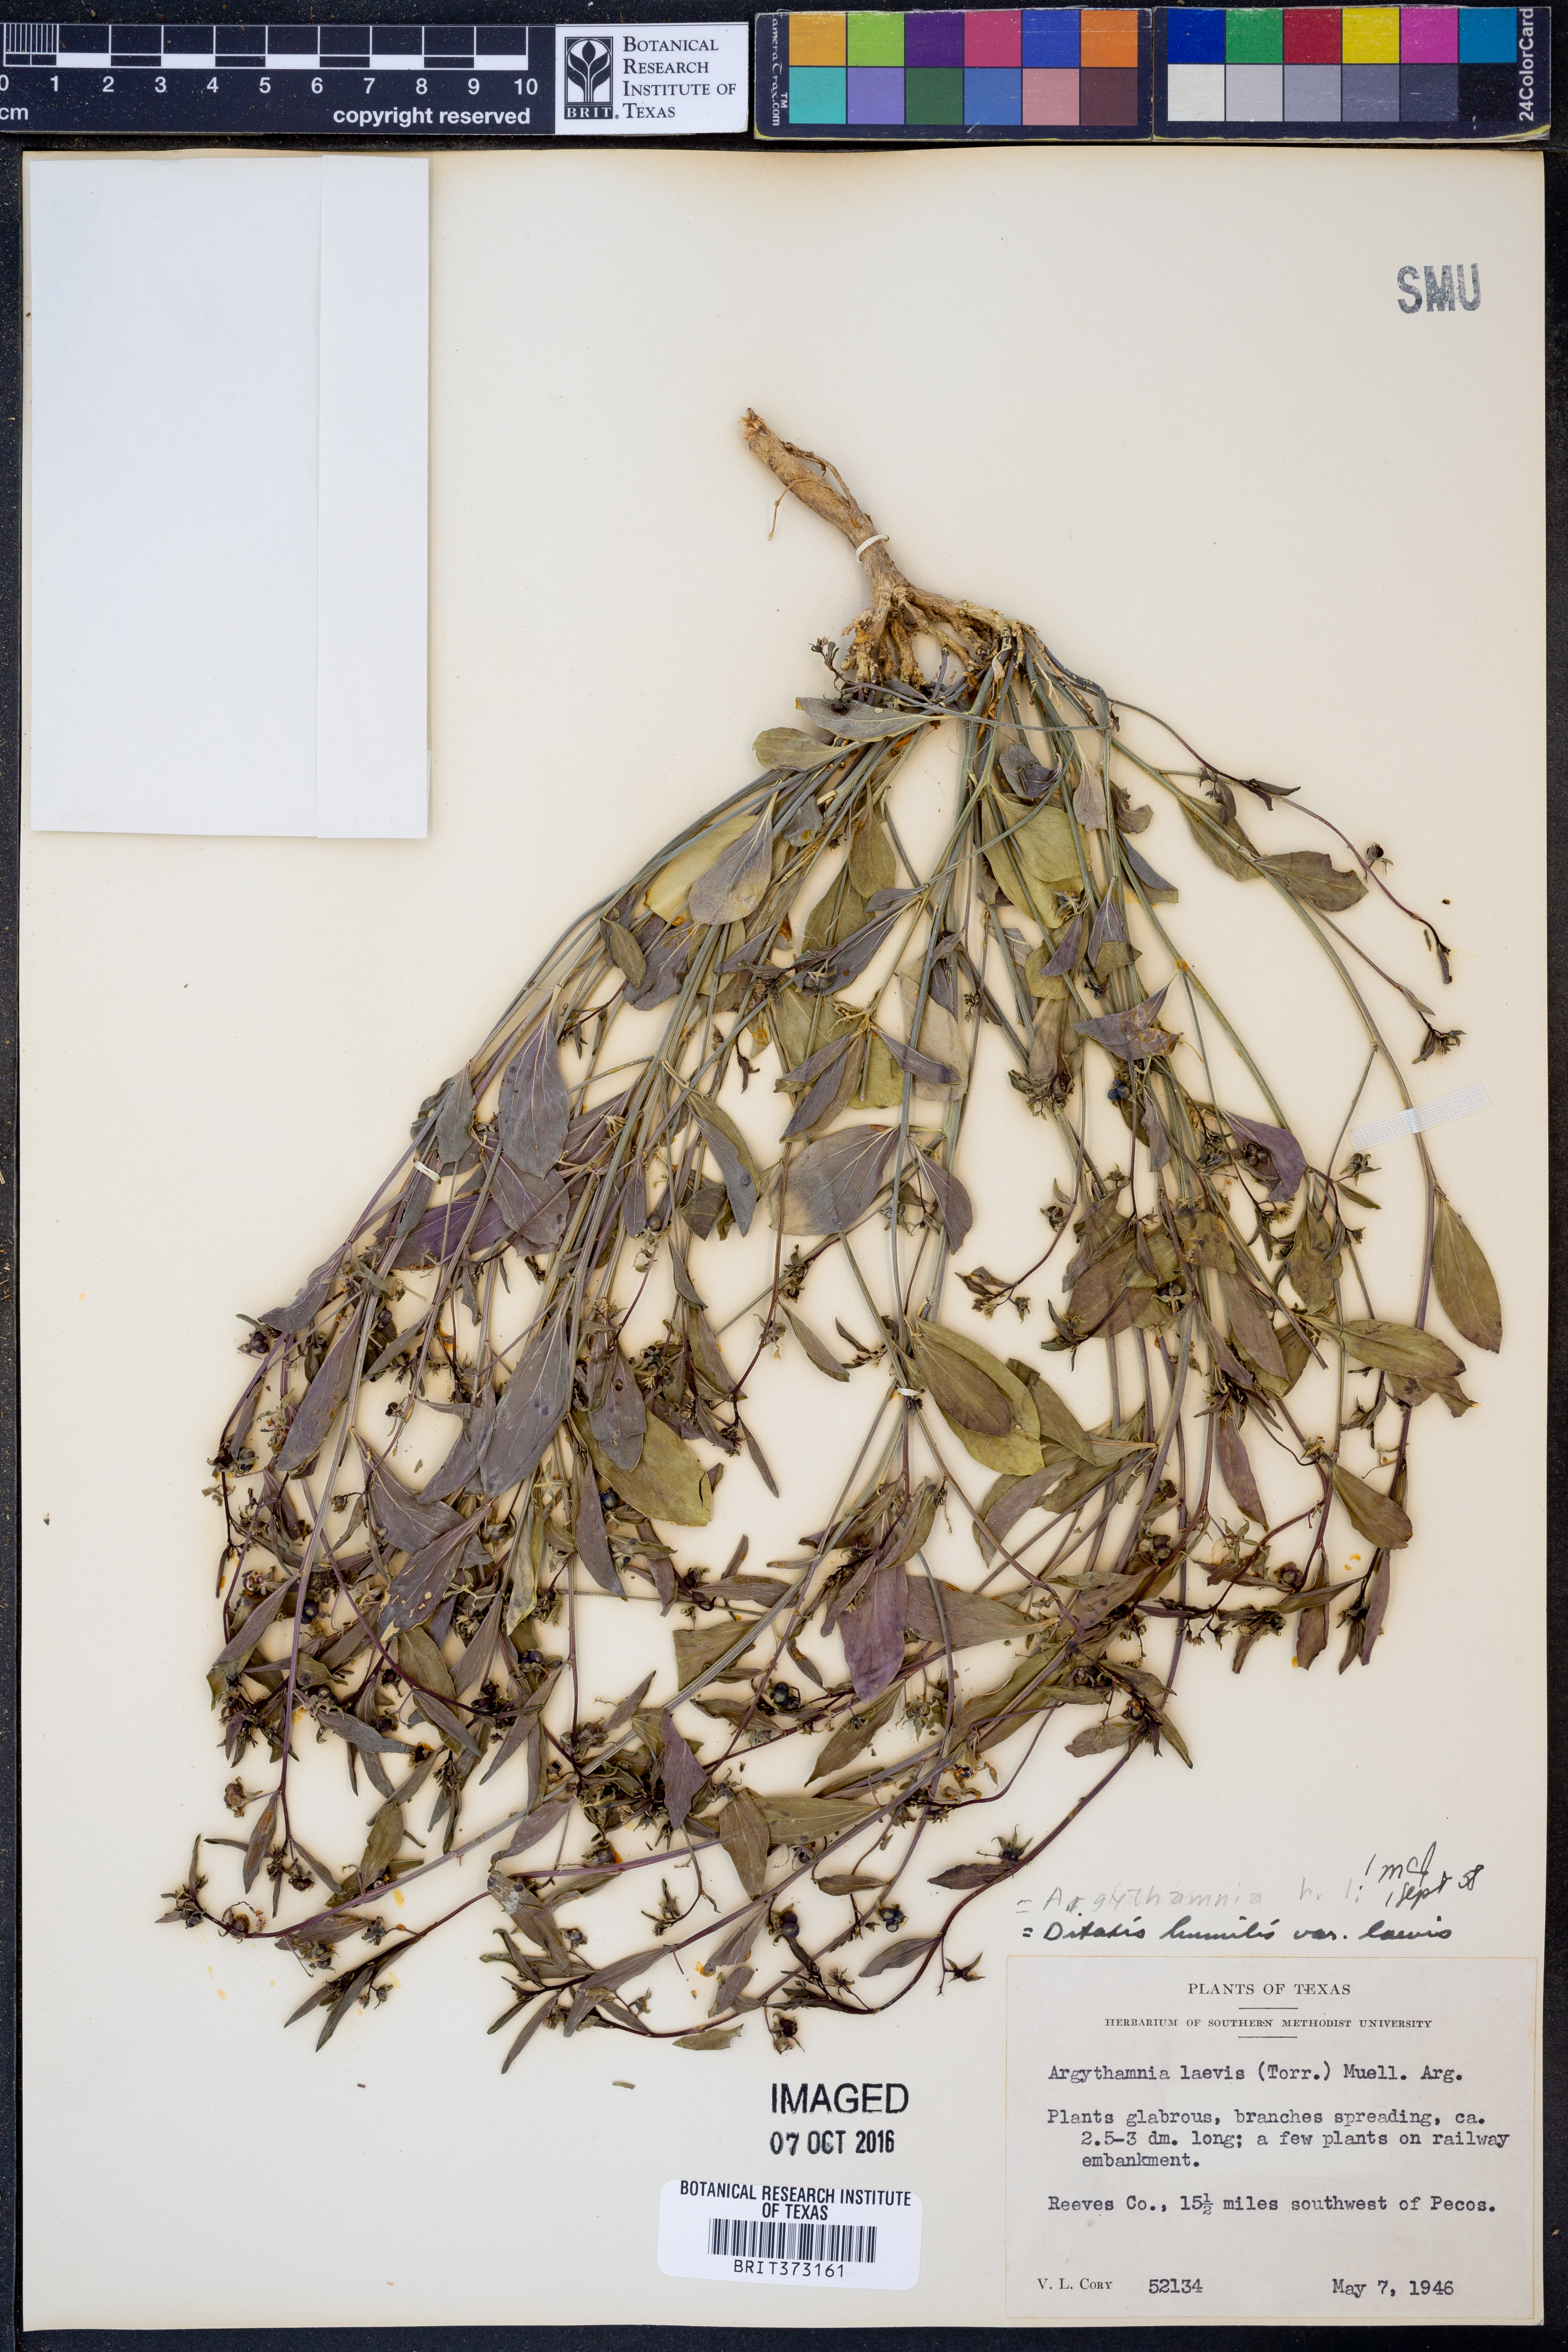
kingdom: Plantae
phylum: Tracheophyta
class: Magnoliopsida
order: Malpighiales
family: Euphorbiaceae
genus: Ditaxis
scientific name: Ditaxis humilis
